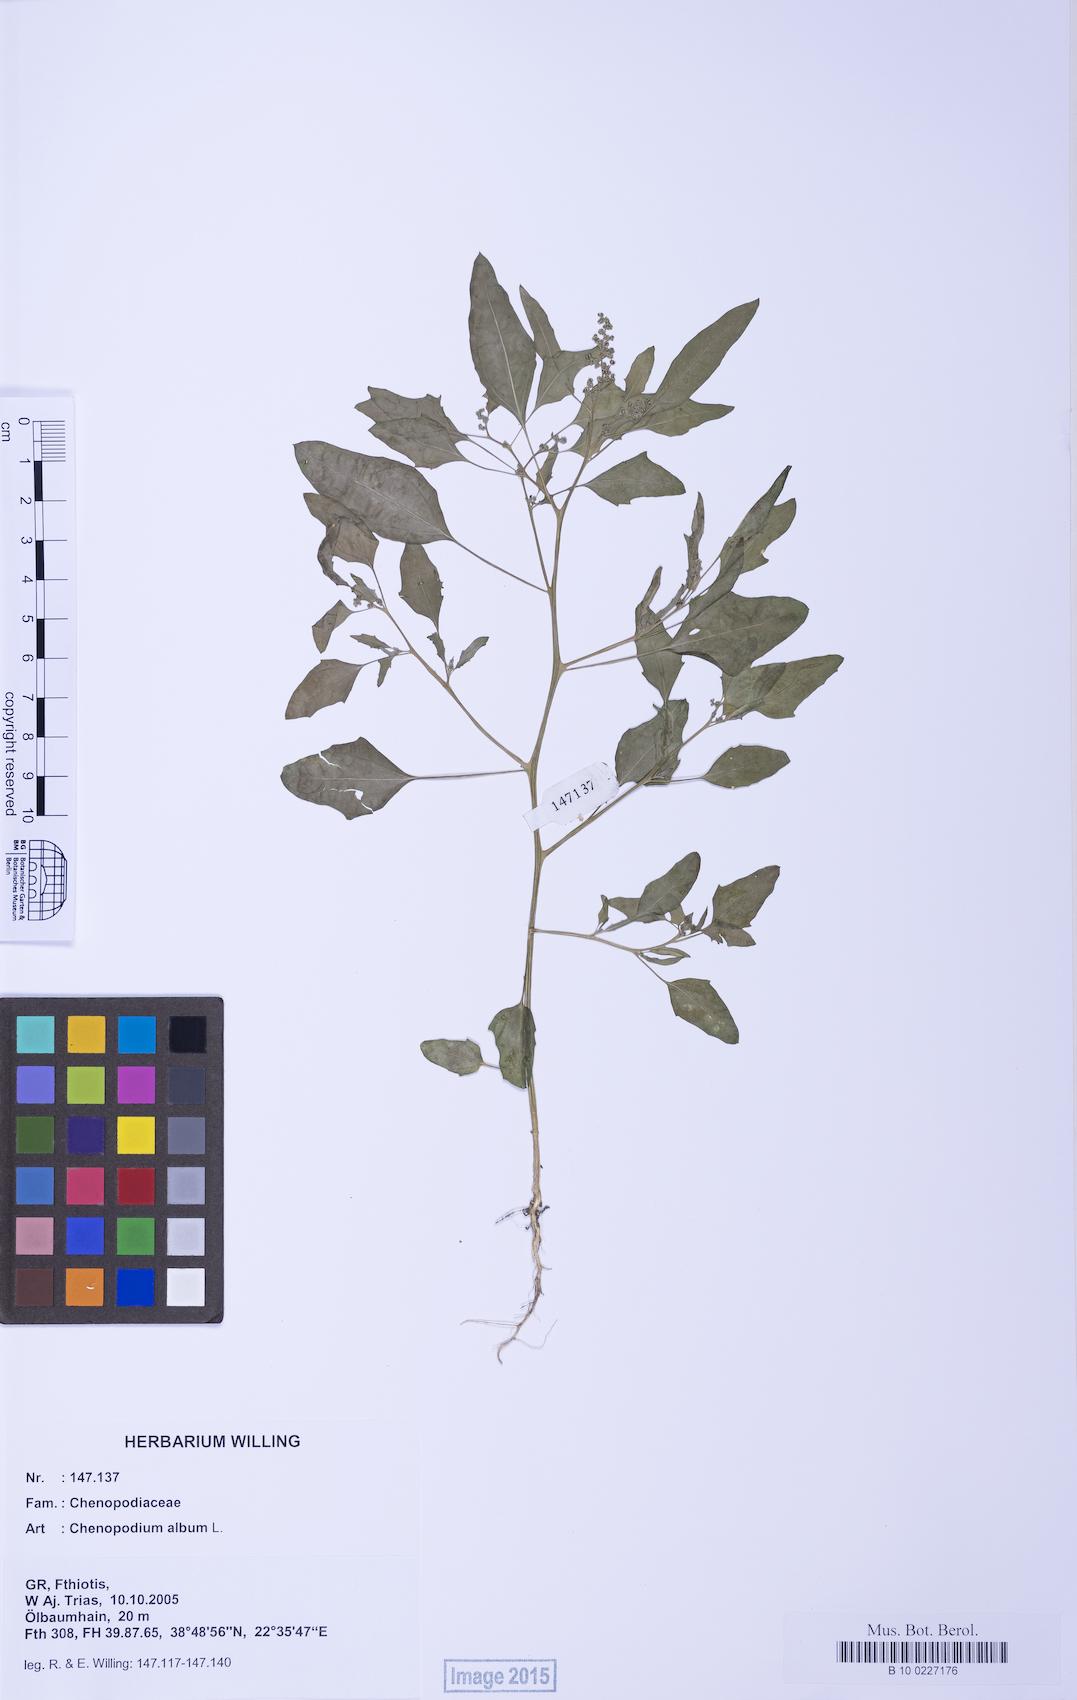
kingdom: Plantae
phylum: Tracheophyta
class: Magnoliopsida
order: Caryophyllales
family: Amaranthaceae
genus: Chenopodium
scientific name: Chenopodium album
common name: Fat-hen
